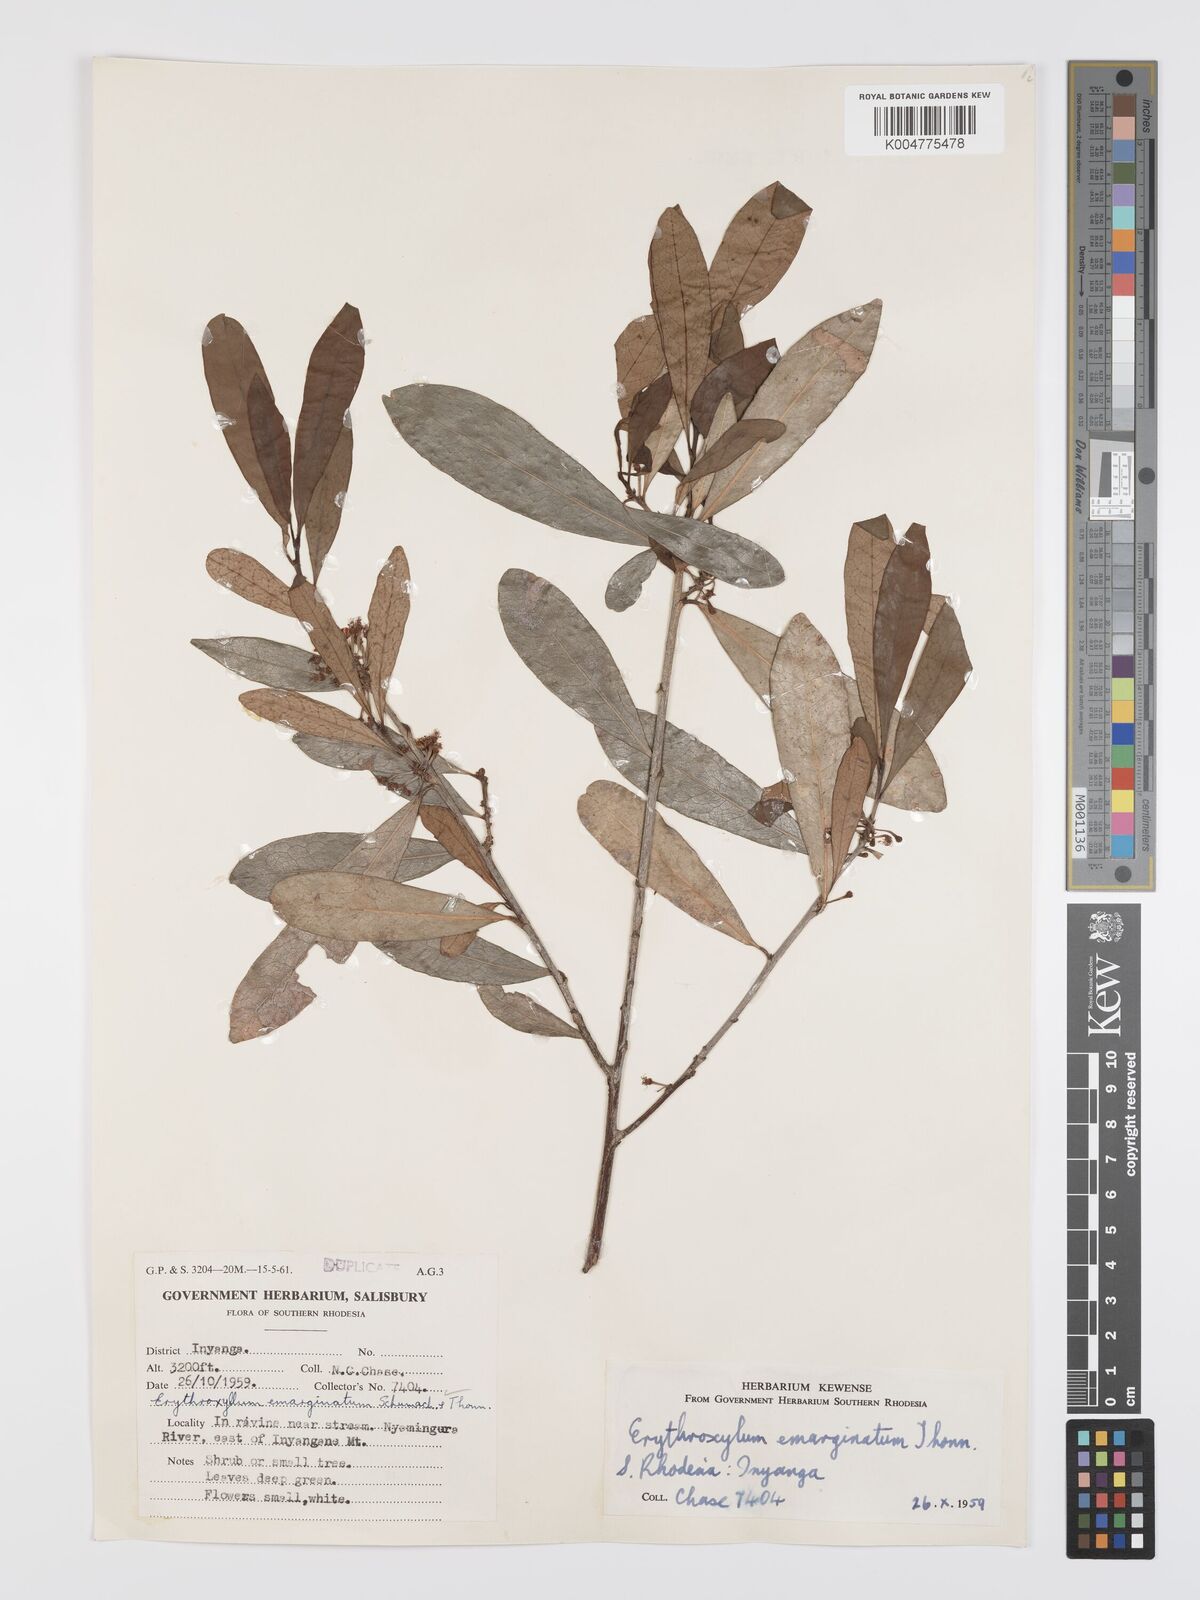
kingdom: Plantae
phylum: Tracheophyta
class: Magnoliopsida
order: Malpighiales
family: Erythroxylaceae
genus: Erythroxylum
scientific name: Erythroxylum emarginatum
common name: African coca-tree
